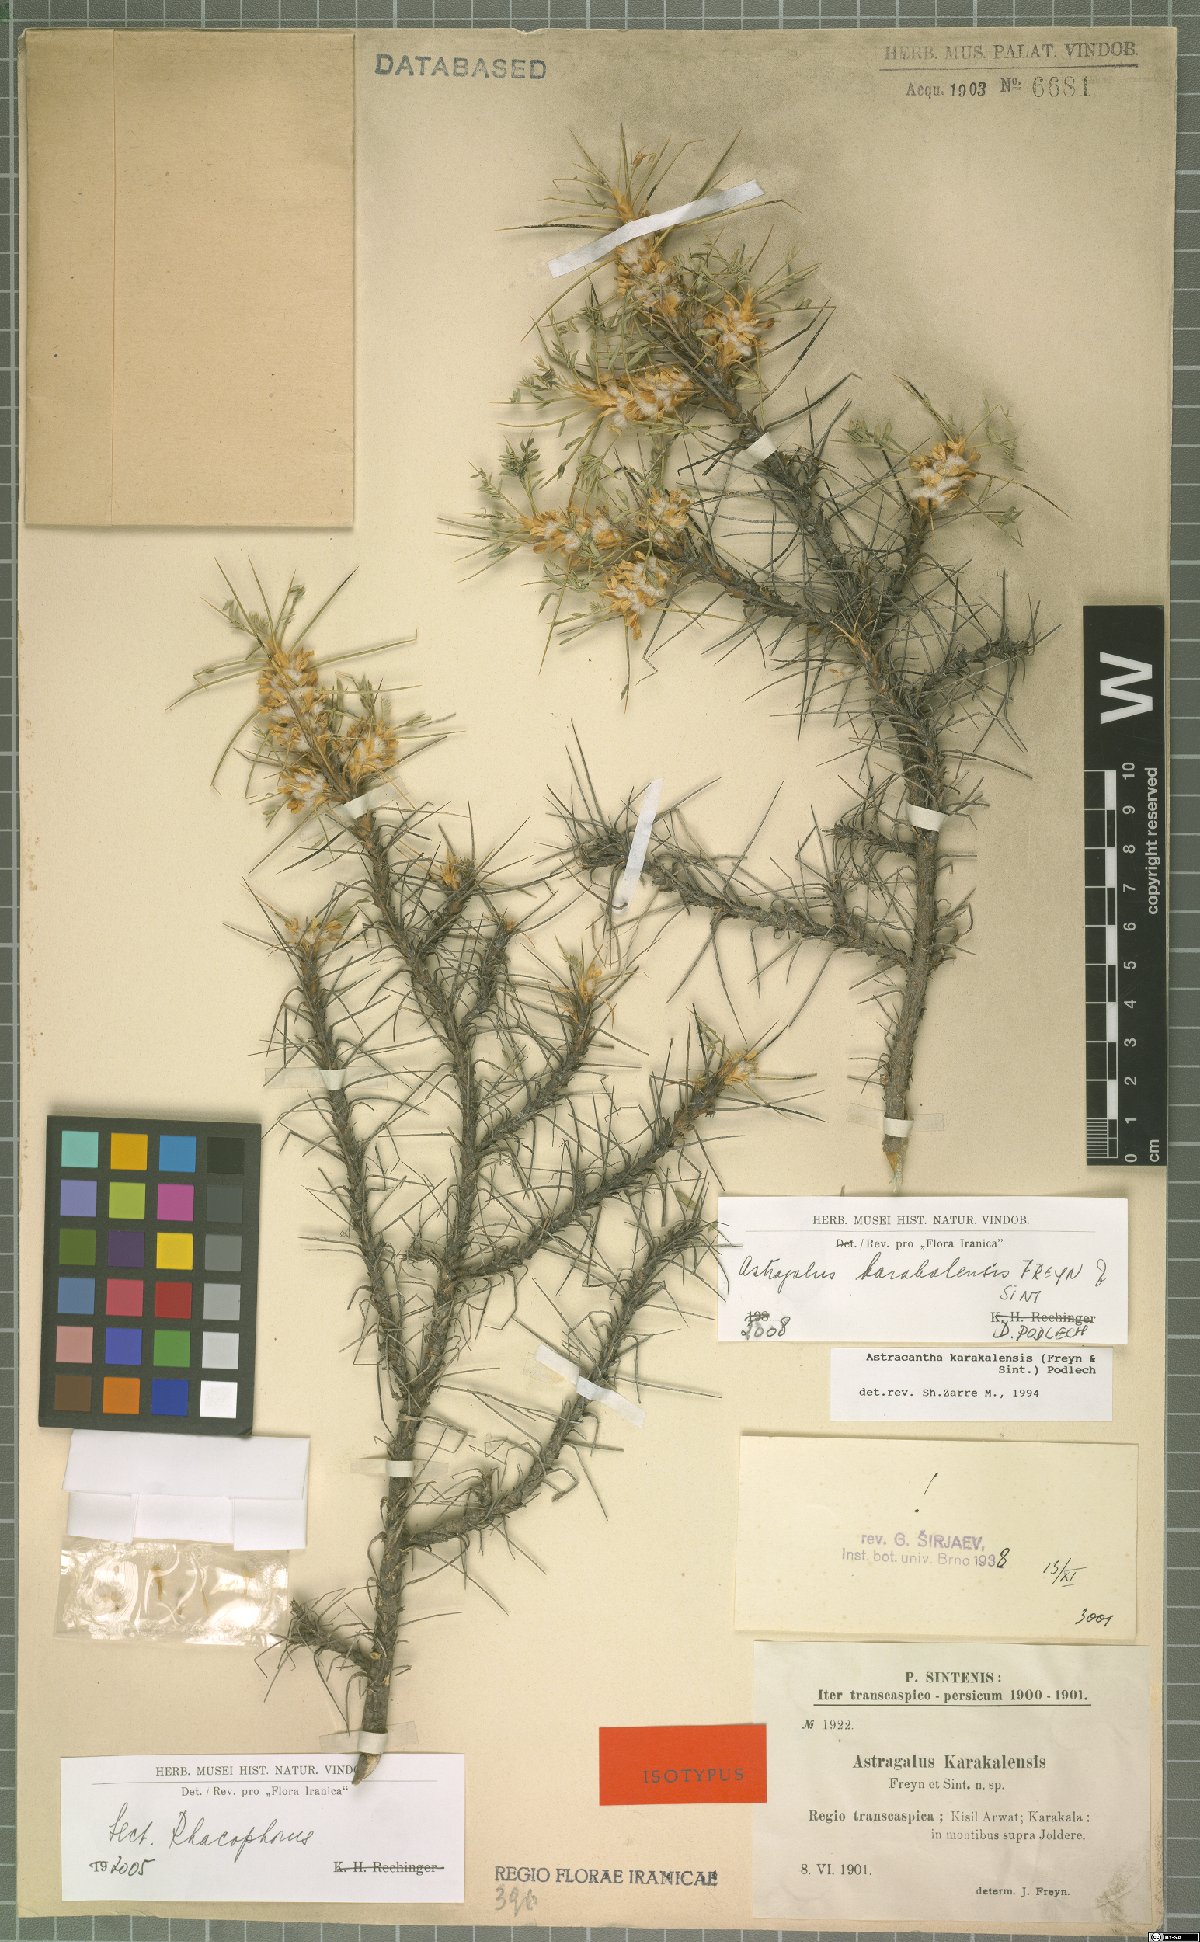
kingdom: Plantae
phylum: Tracheophyta
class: Magnoliopsida
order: Fabales
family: Fabaceae
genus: Astragalus
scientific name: Astragalus karakalensis
